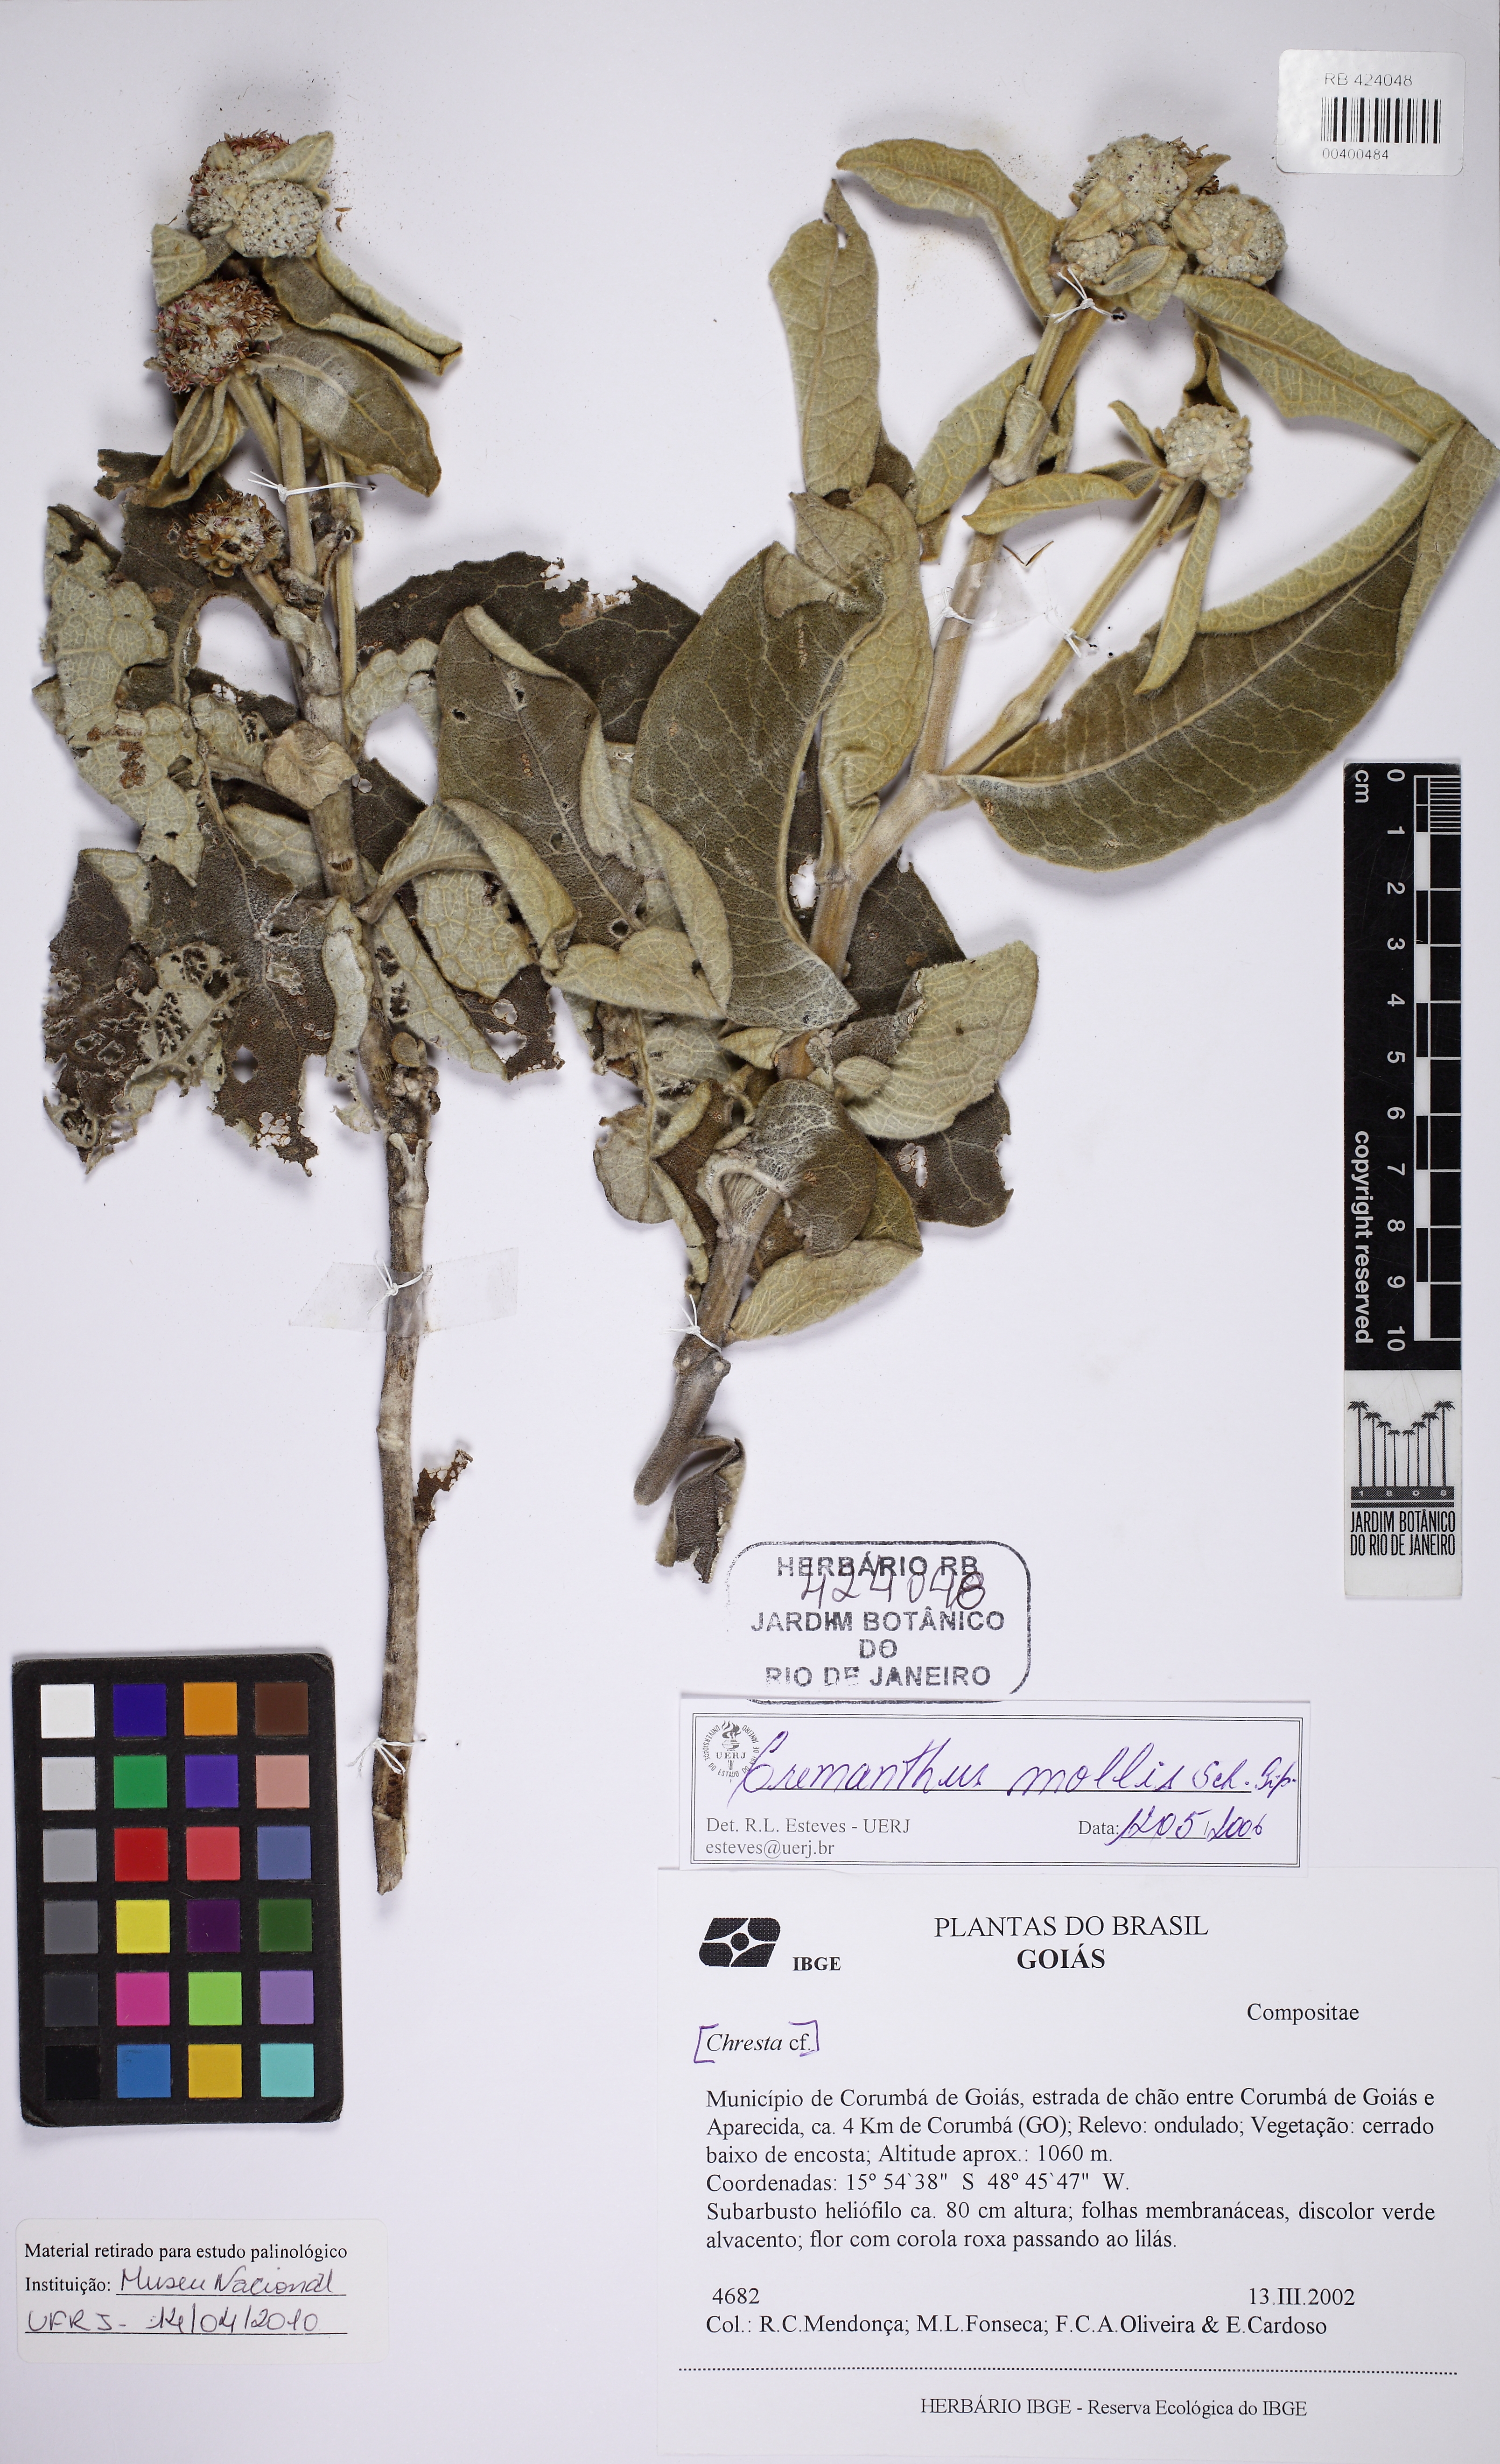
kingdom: Plantae
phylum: Tracheophyta
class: Magnoliopsida
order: Asterales
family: Asteraceae
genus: Eremanthus
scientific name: Eremanthus mollis
